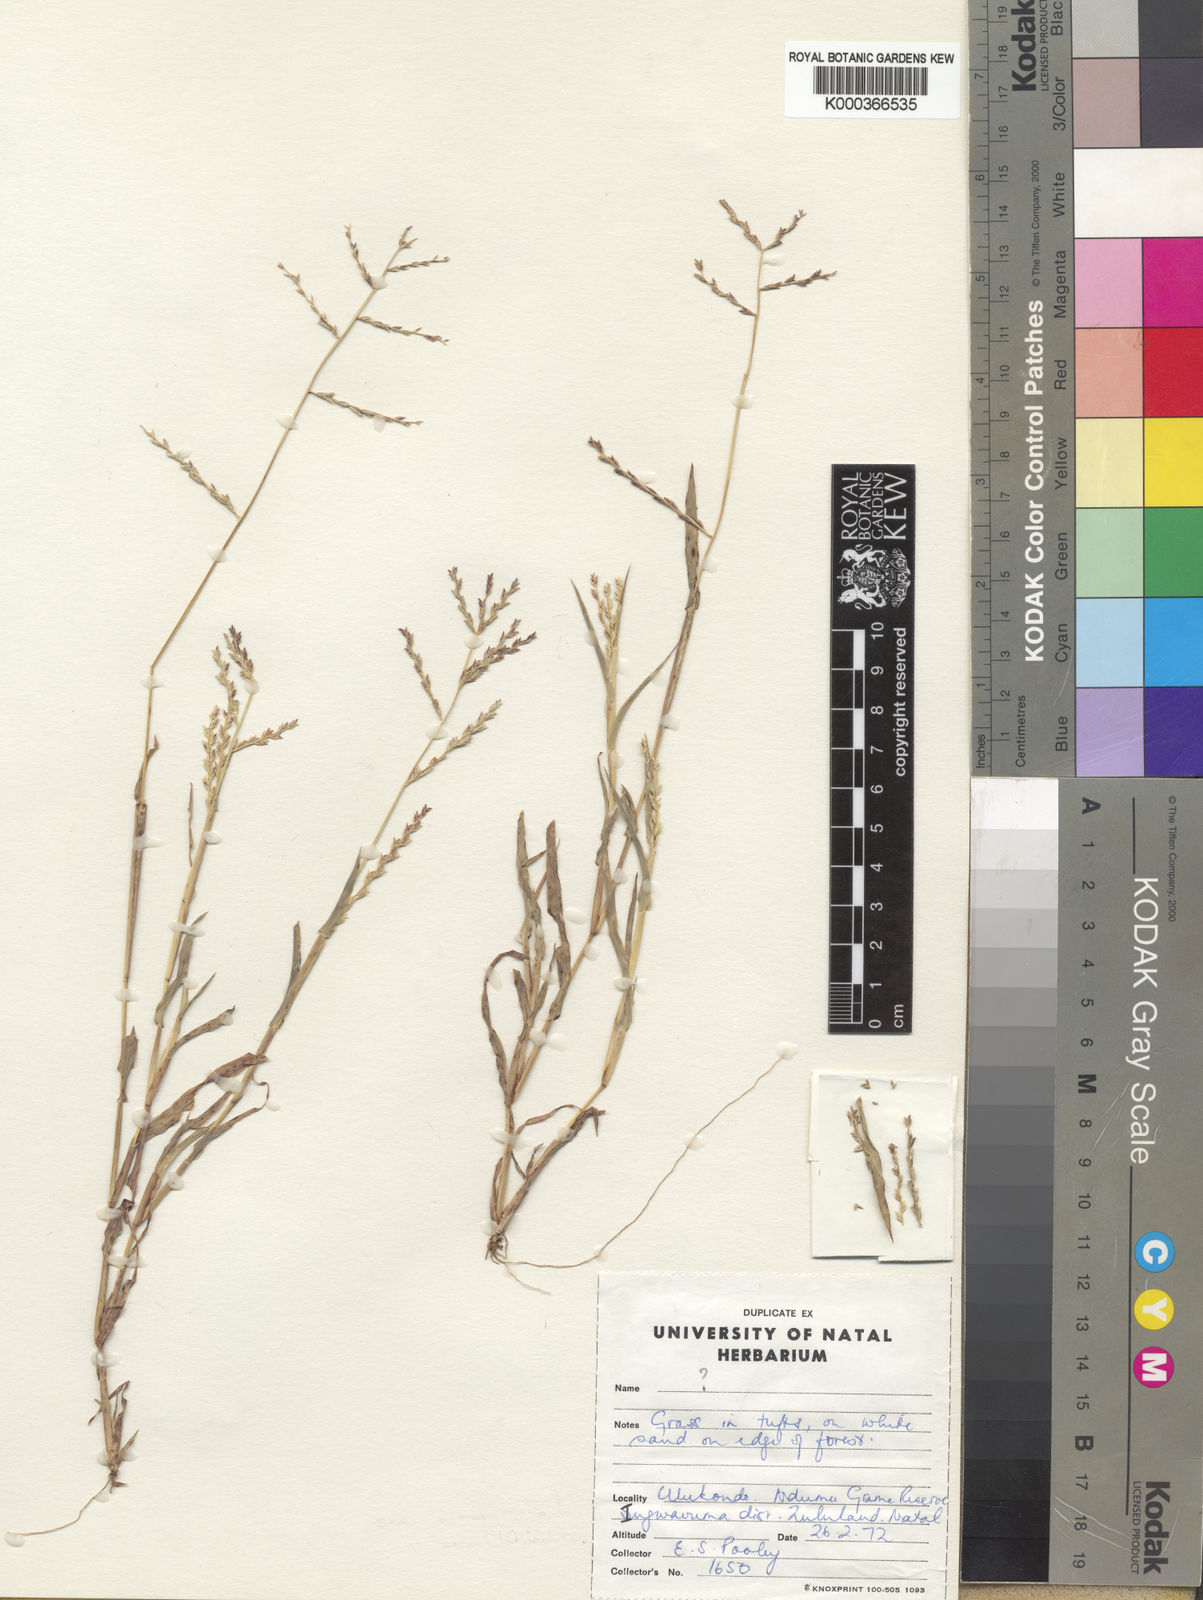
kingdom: Plantae
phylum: Tracheophyta
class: Liliopsida
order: Poales
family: Poaceae
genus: Brachychloa
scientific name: Brachychloa fragilis
